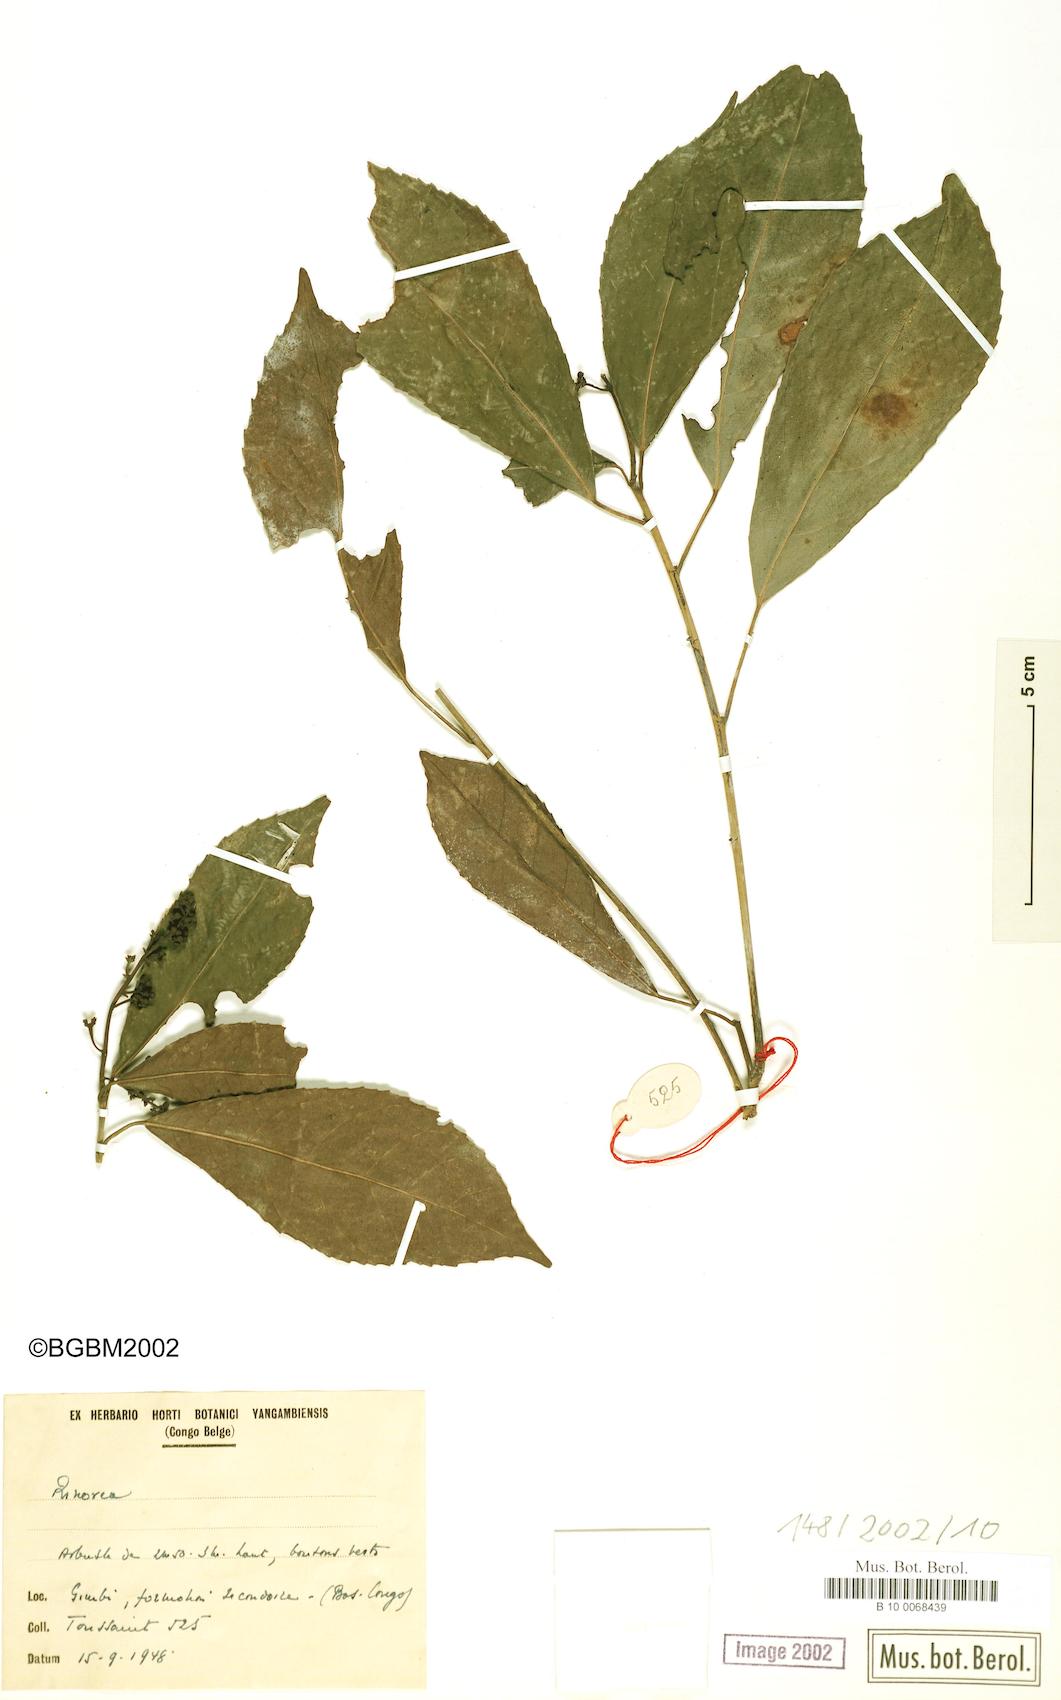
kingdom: Plantae
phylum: Tracheophyta
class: Magnoliopsida
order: Malpighiales
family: Violaceae
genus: Rinorea
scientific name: Rinorea
